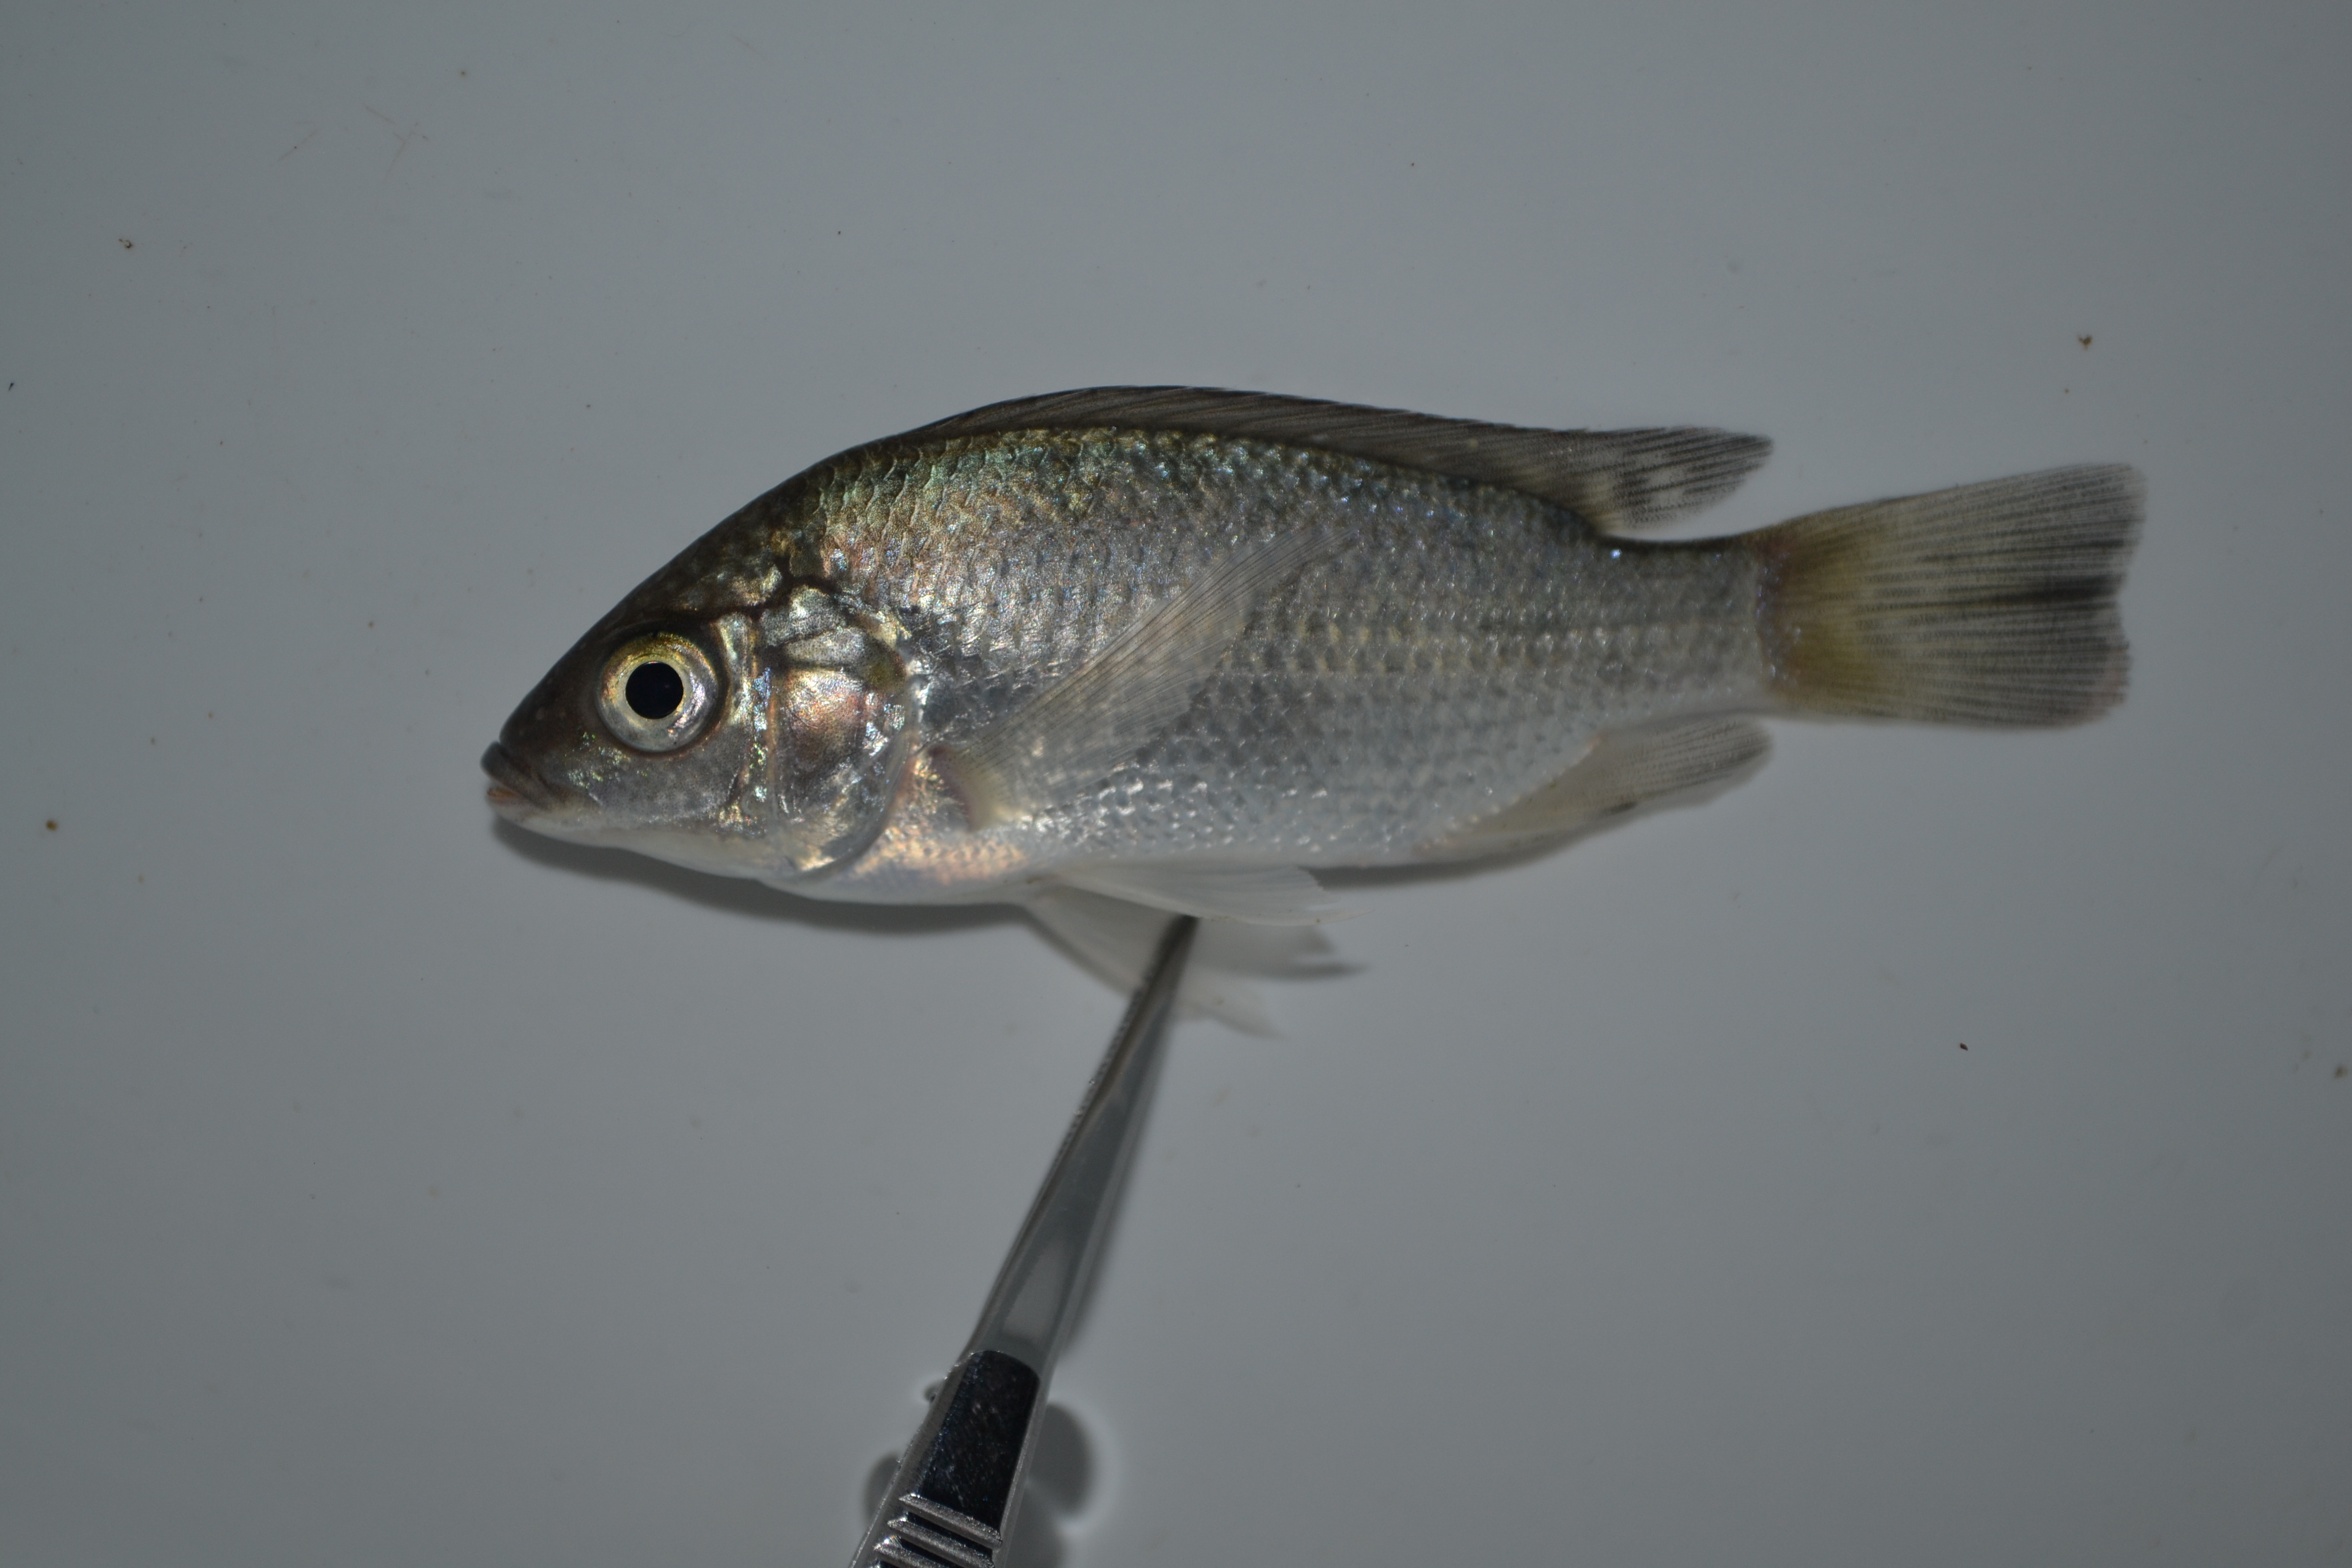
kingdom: Animalia
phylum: Chordata
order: Perciformes
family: Cichlidae
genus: Oreochromis
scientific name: Oreochromis mossambicus
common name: Mozambique tilapia
